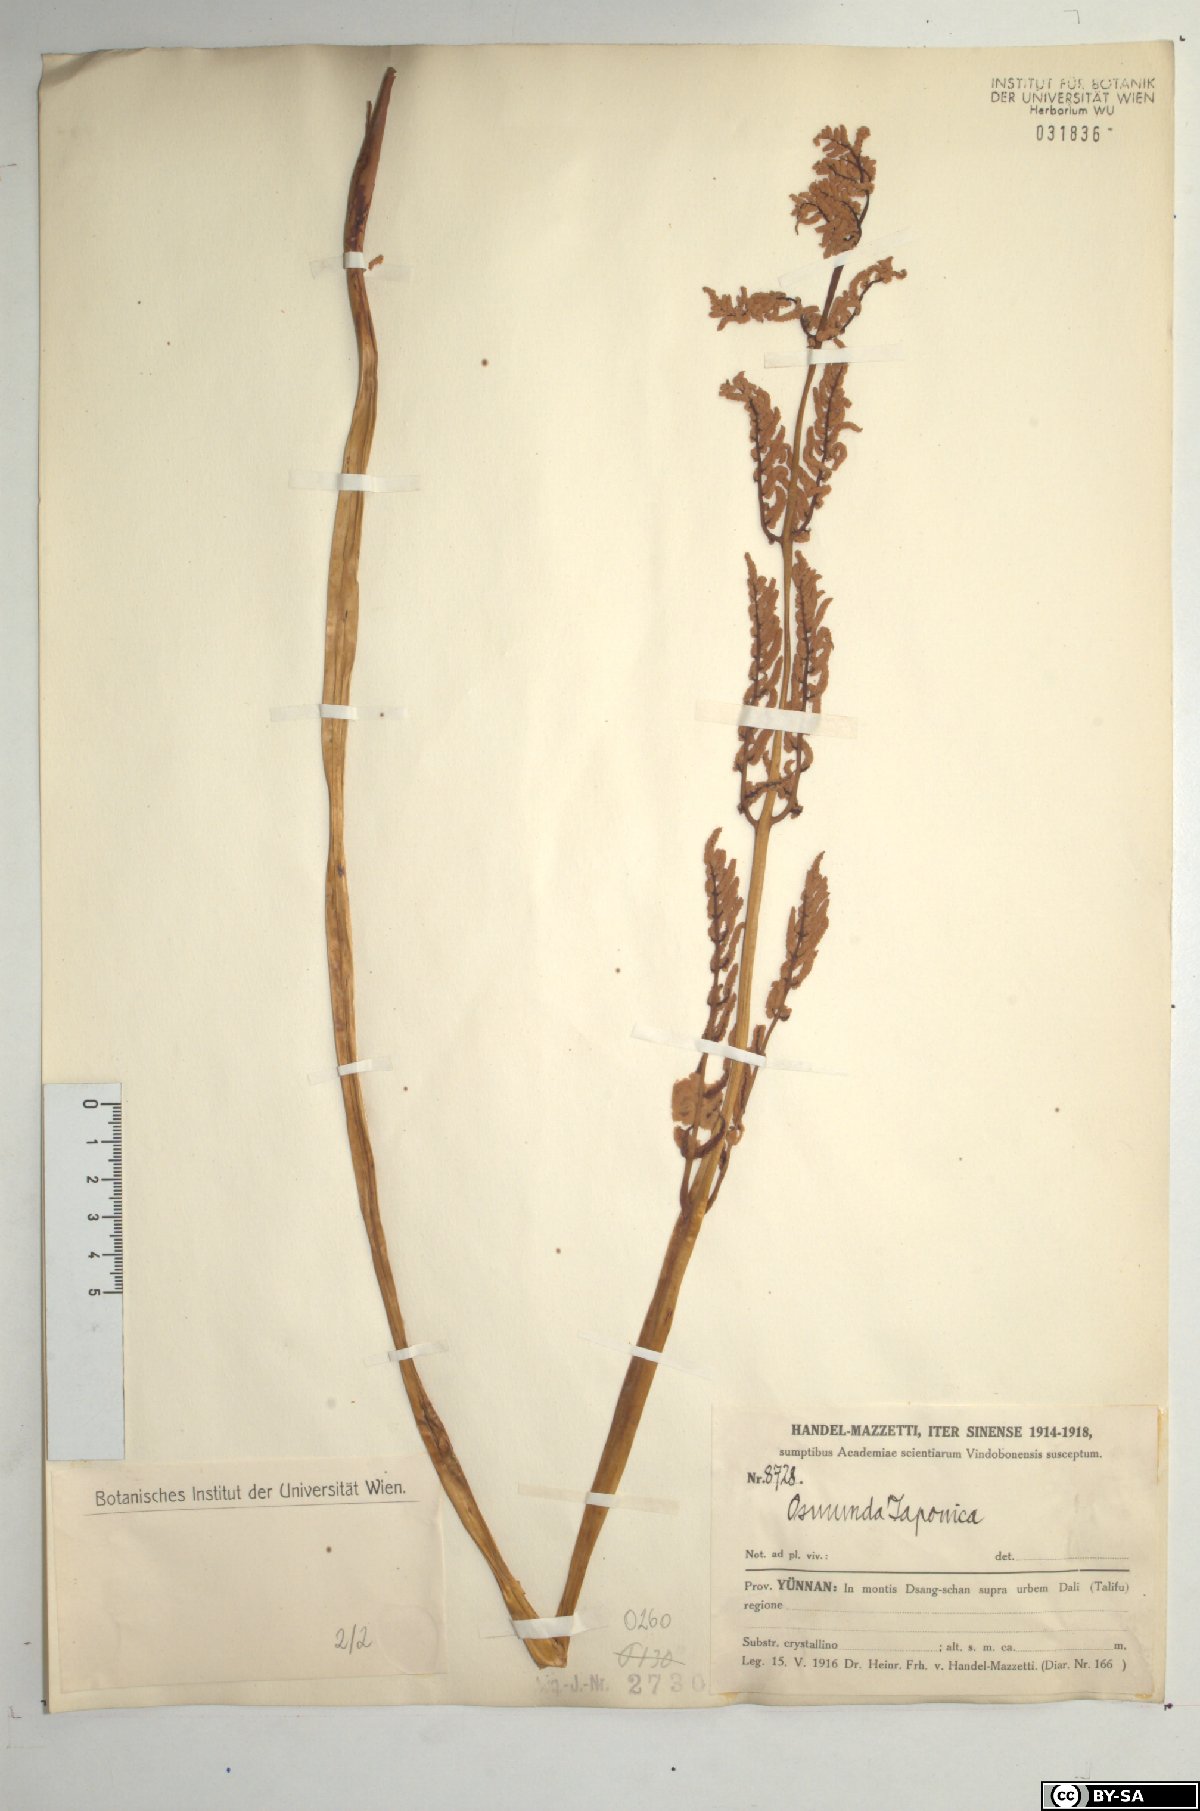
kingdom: Plantae
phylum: Tracheophyta
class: Polypodiopsida
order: Osmundales
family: Osmundaceae
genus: Osmunda
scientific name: Osmunda japonica
